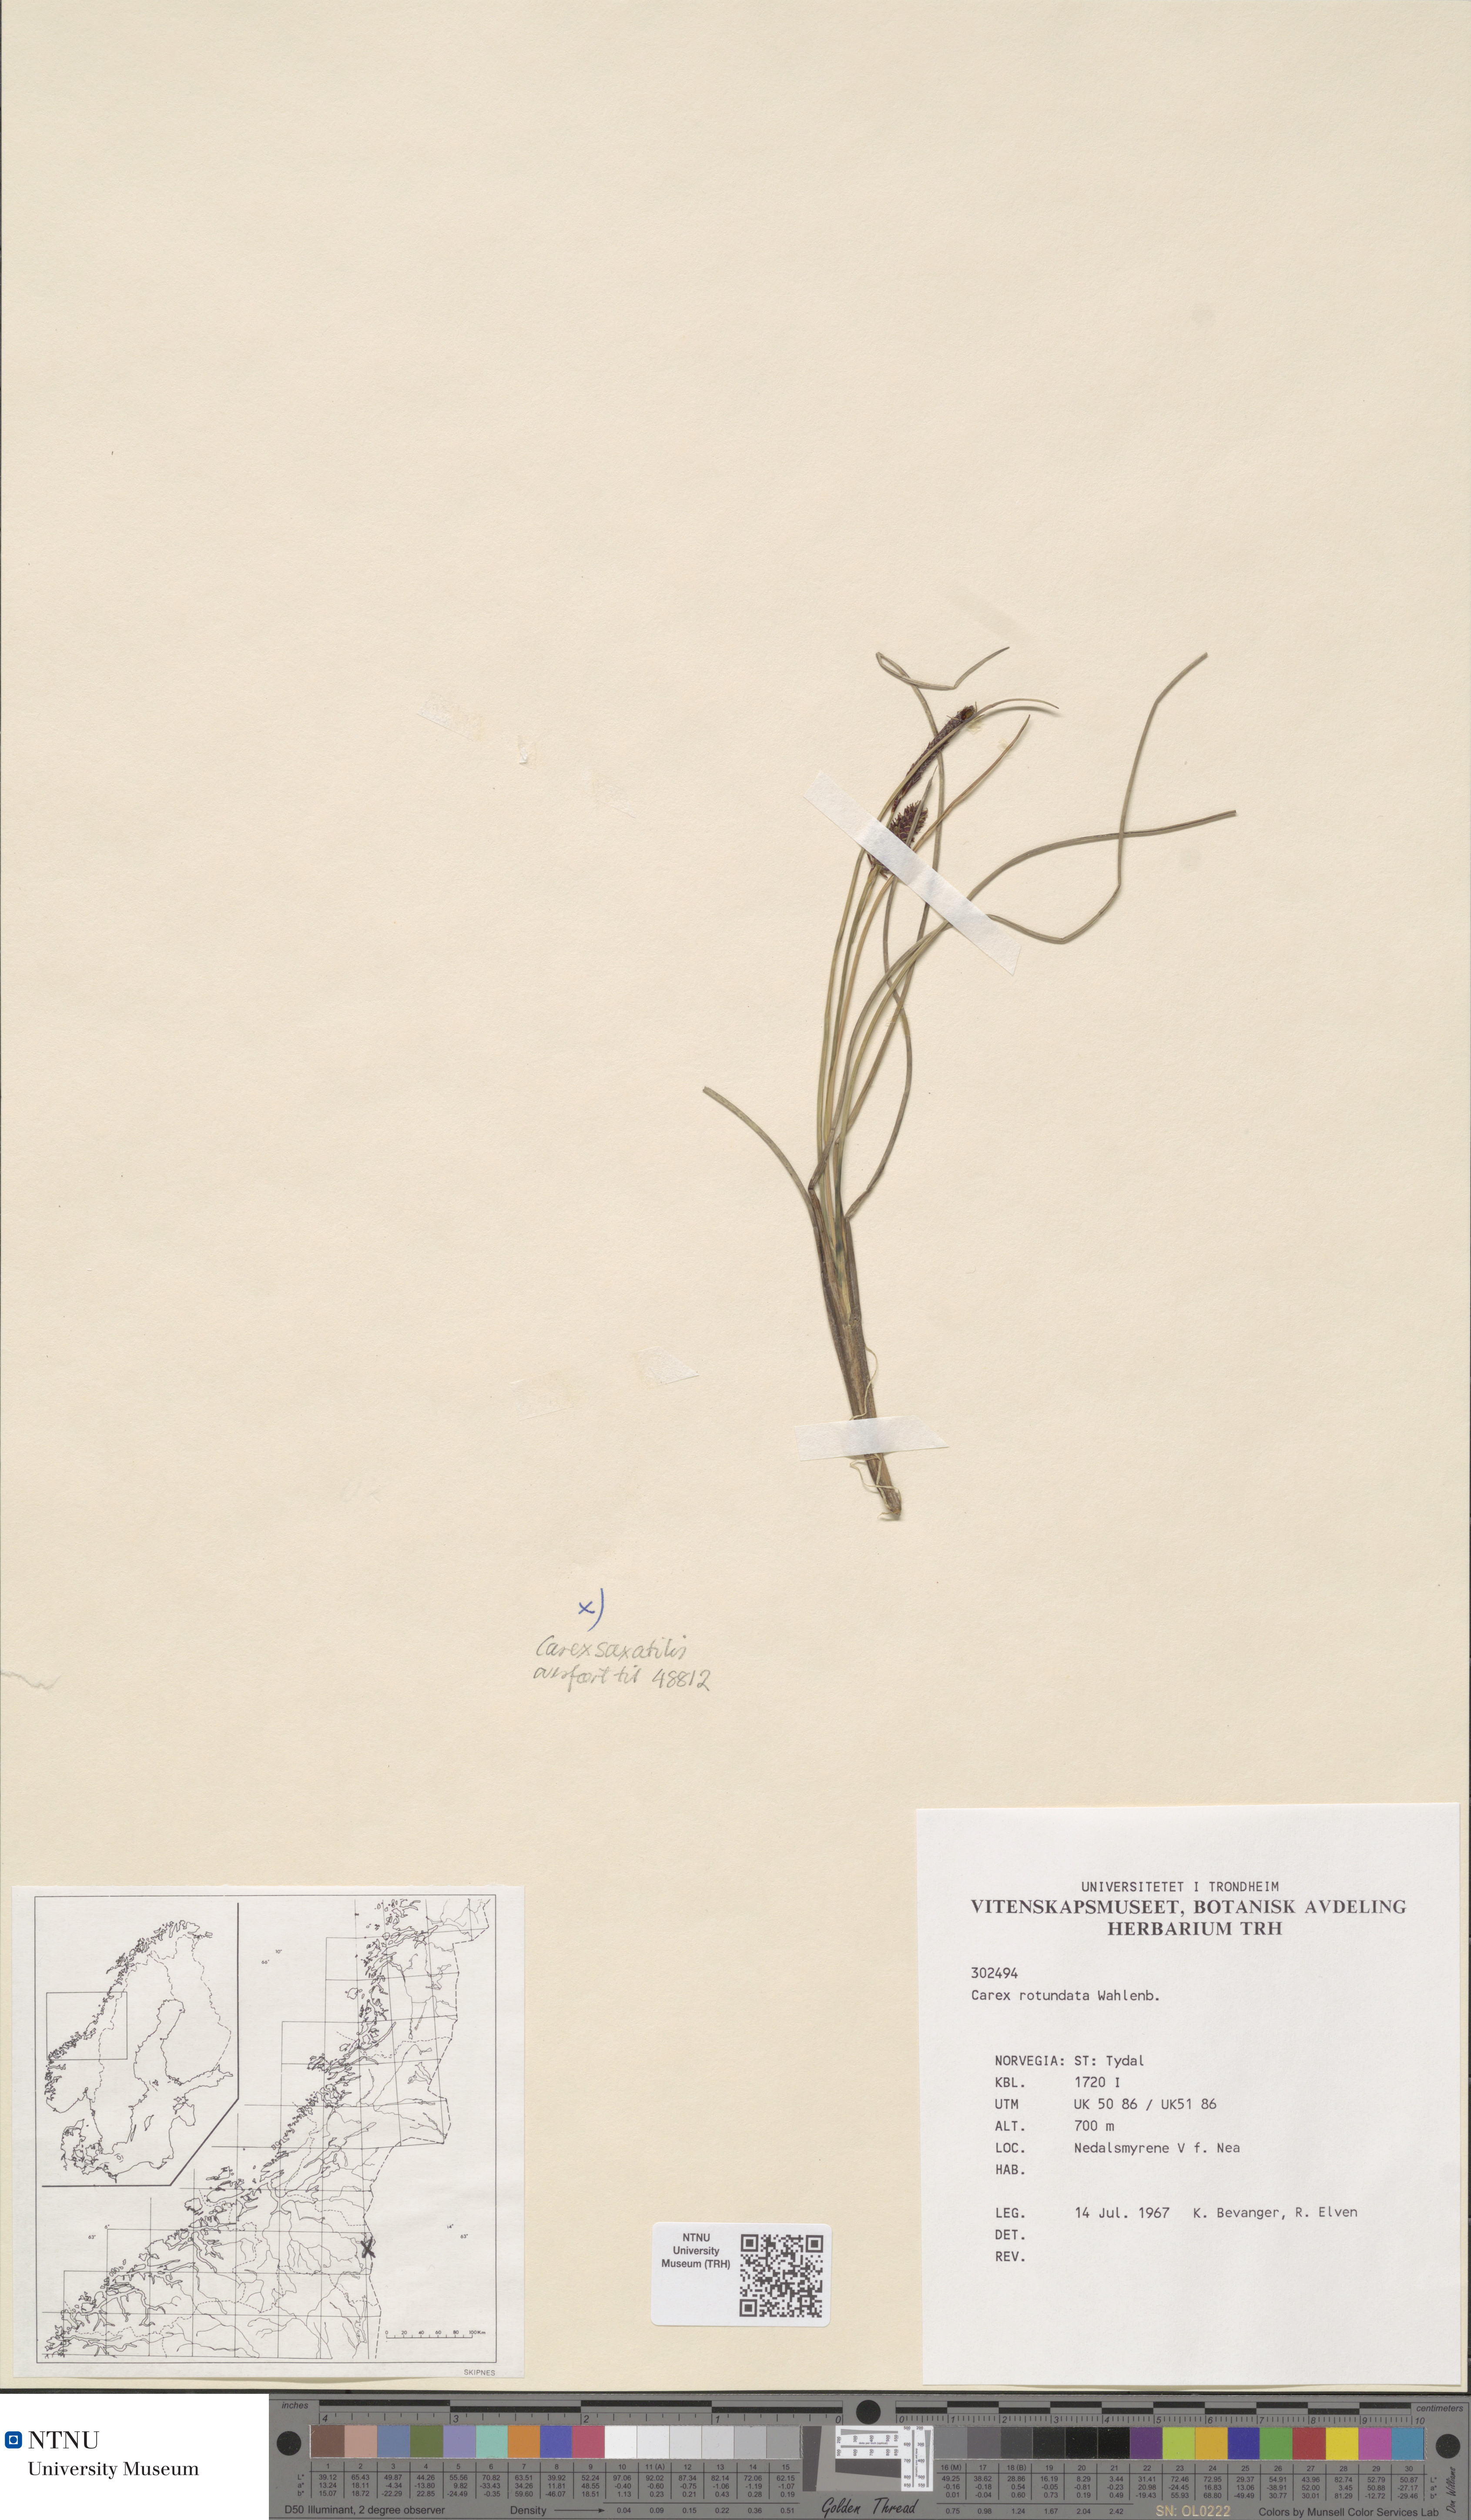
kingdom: Plantae
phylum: Tracheophyta
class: Liliopsida
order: Poales
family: Cyperaceae
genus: Carex
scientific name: Carex rotundata
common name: Round-fruited sedge
